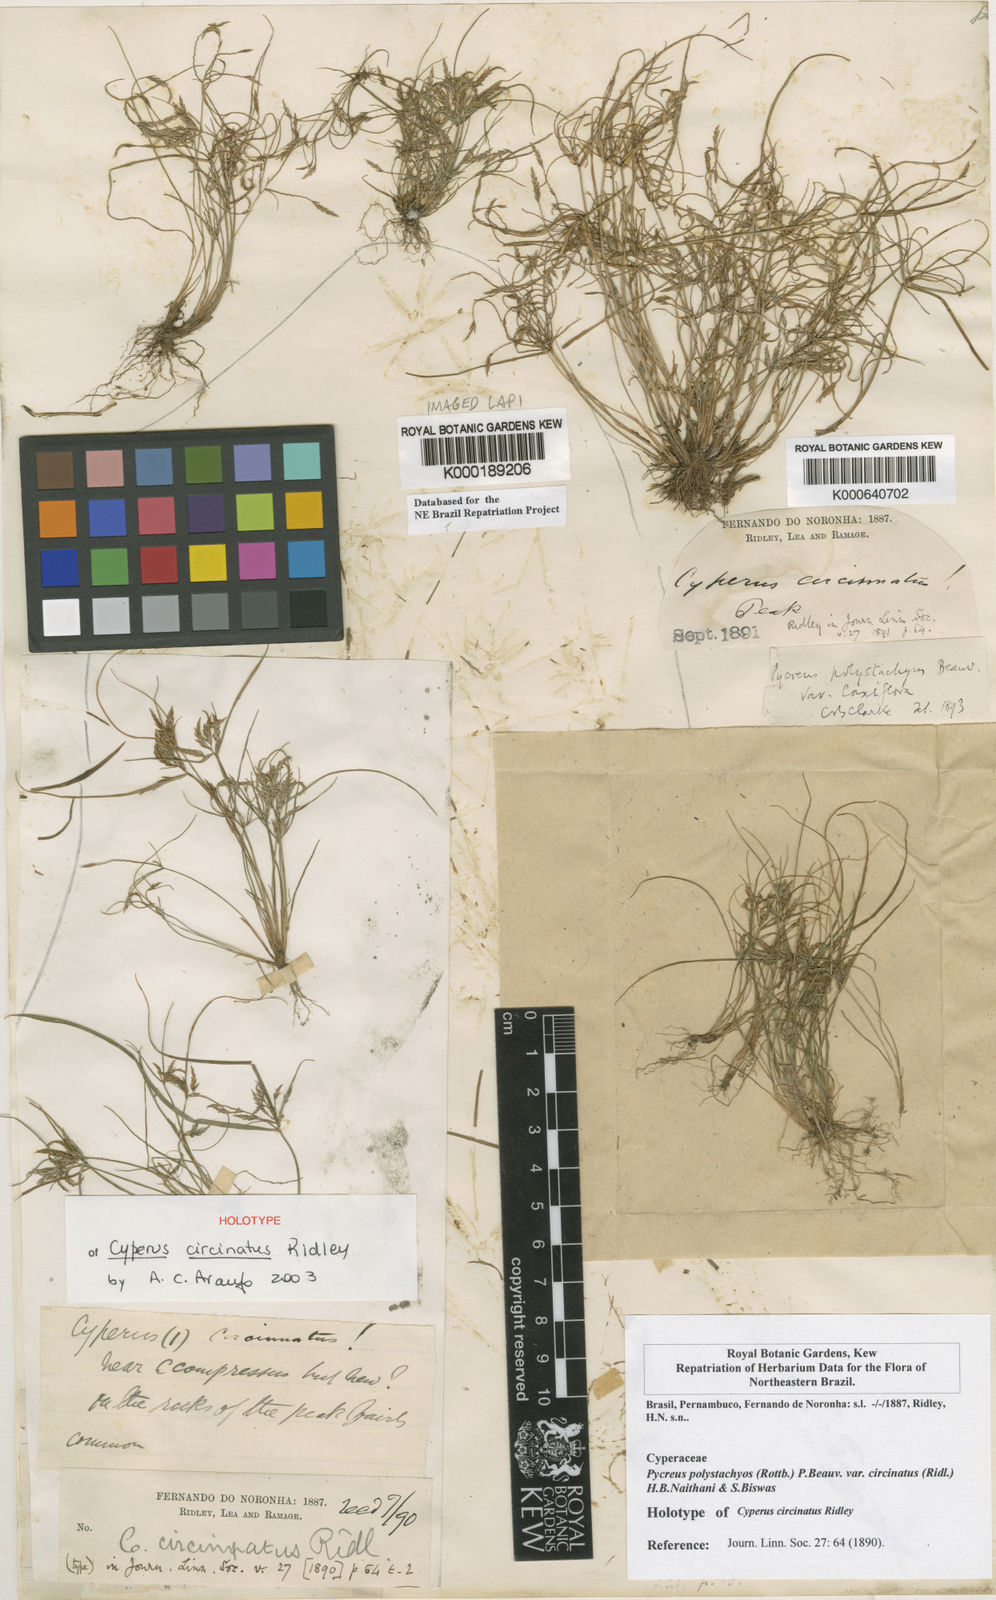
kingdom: Plantae
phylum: Tracheophyta
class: Liliopsida
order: Poales
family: Cyperaceae
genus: Cyperus
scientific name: Cyperus polystachyos
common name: Bunchy flat sedge
